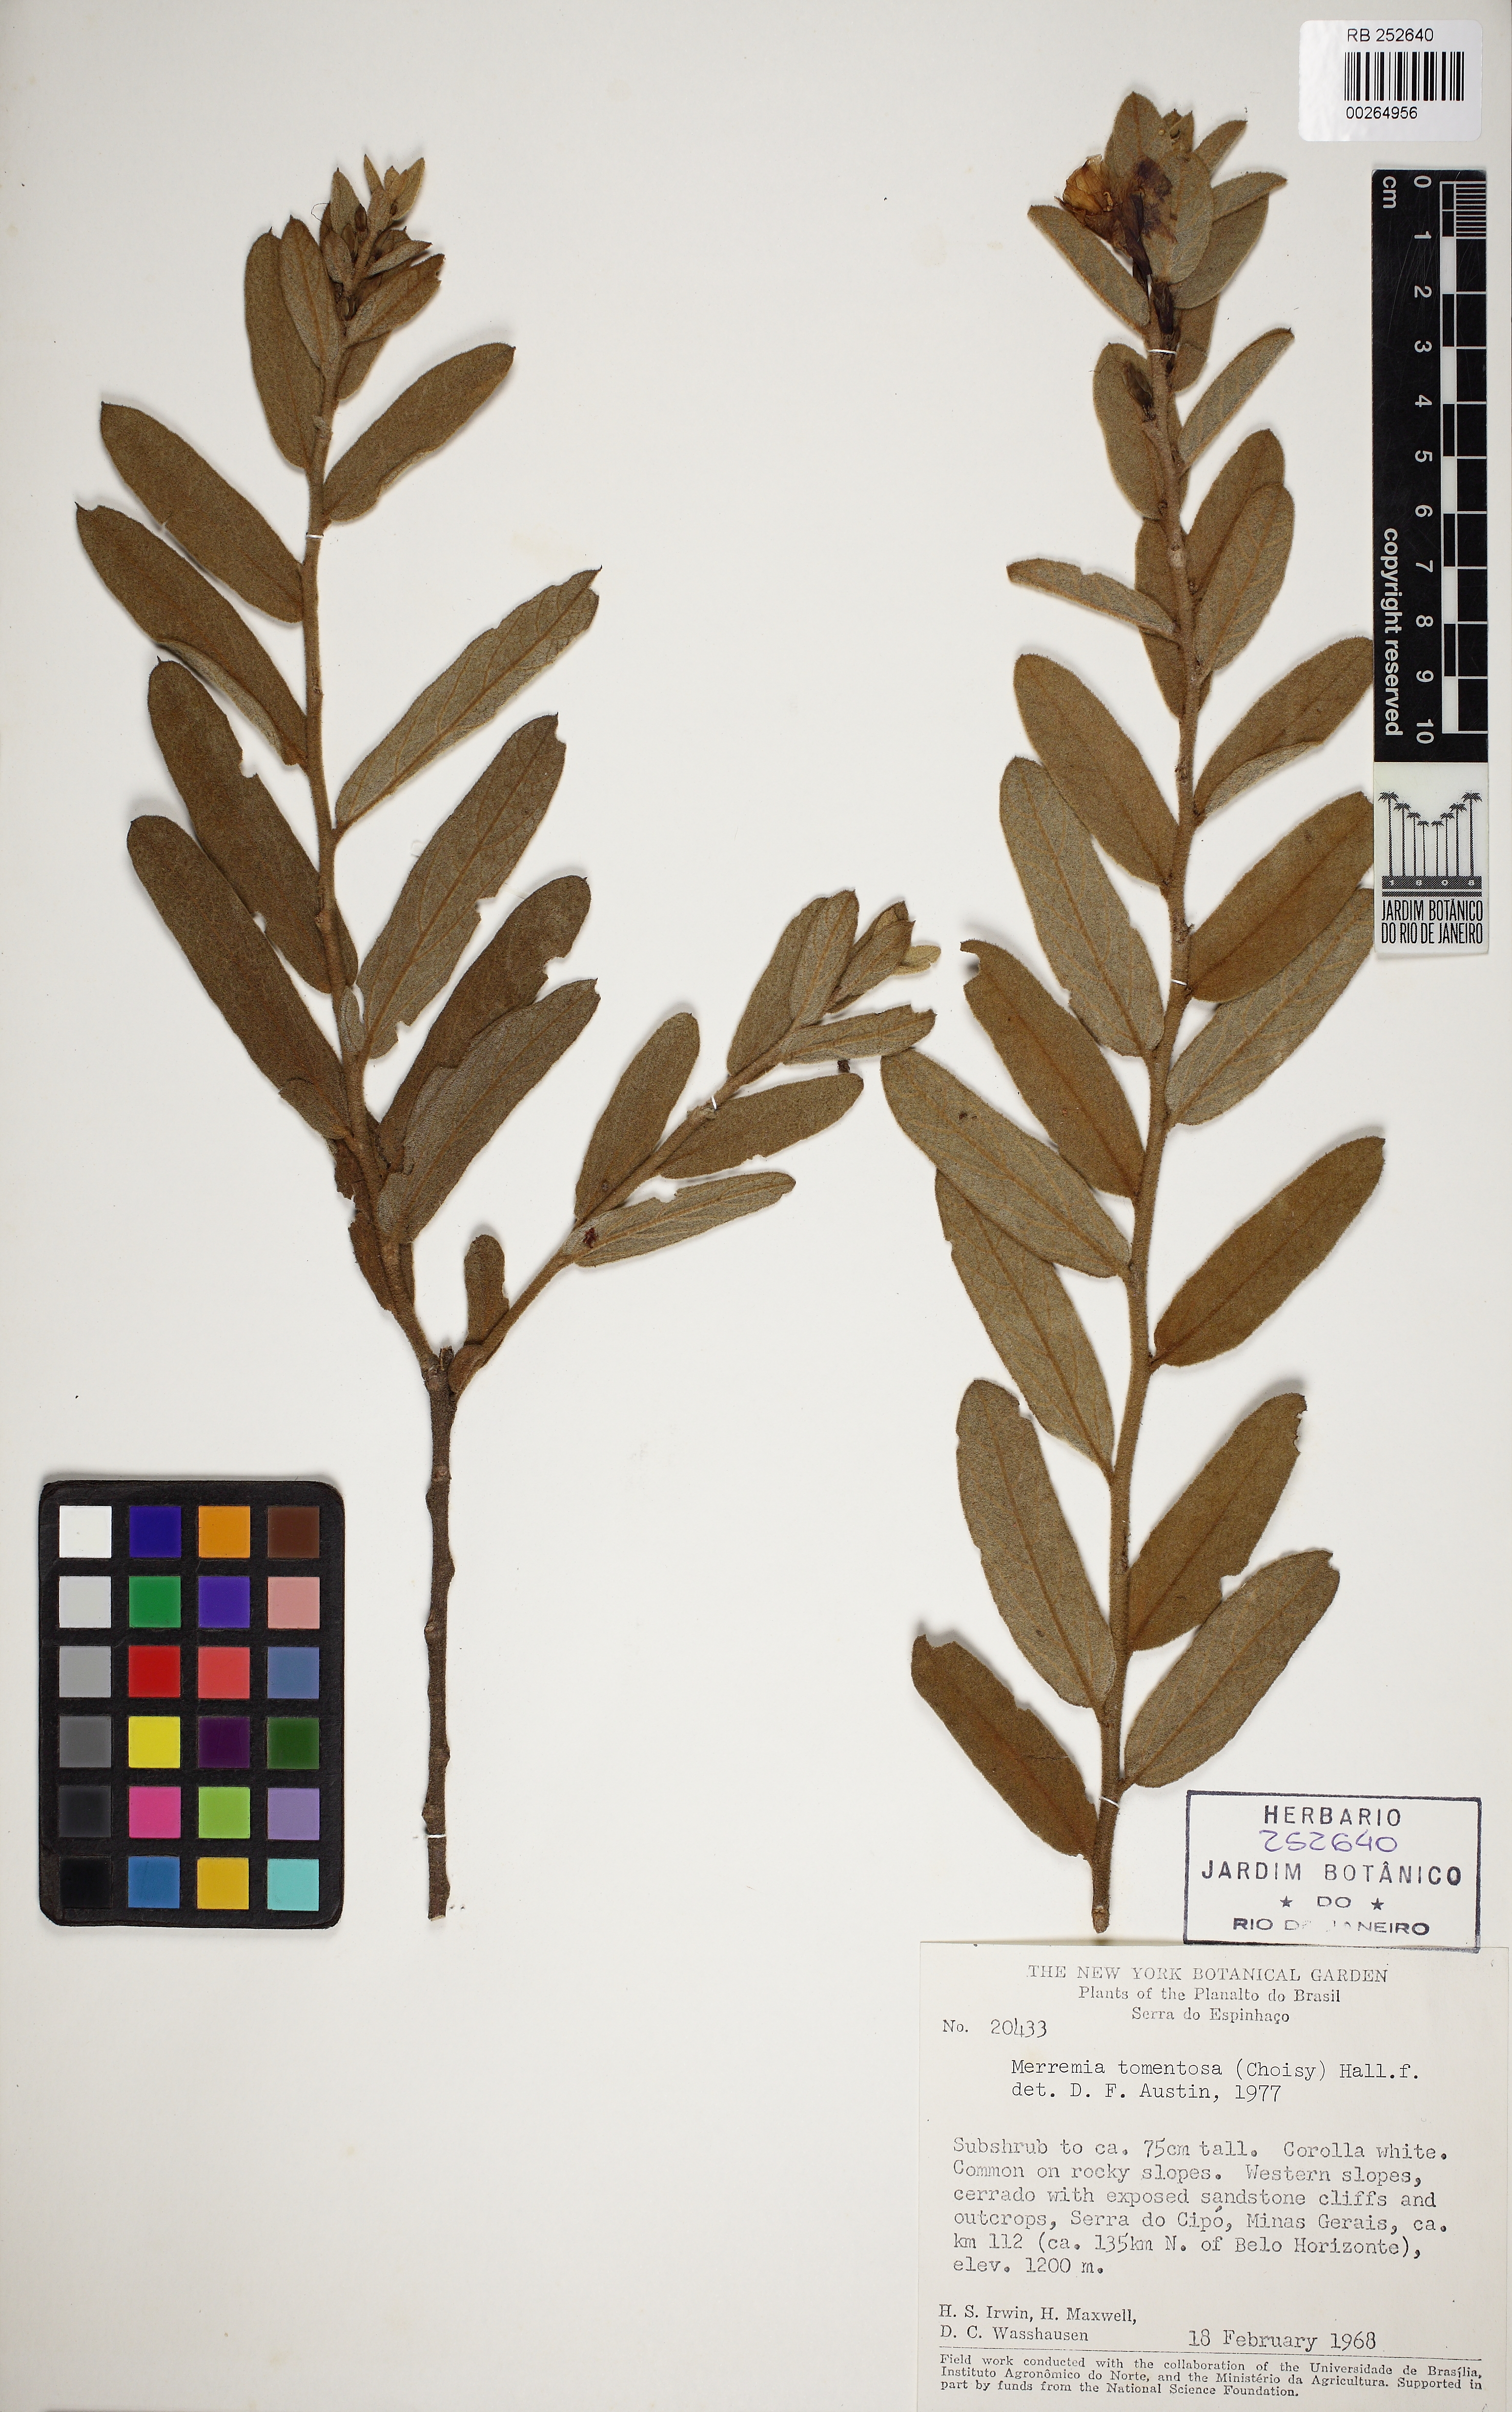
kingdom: Plantae
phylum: Tracheophyta
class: Magnoliopsida
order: Solanales
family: Convolvulaceae
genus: Distimake
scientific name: Distimake tomentosus
